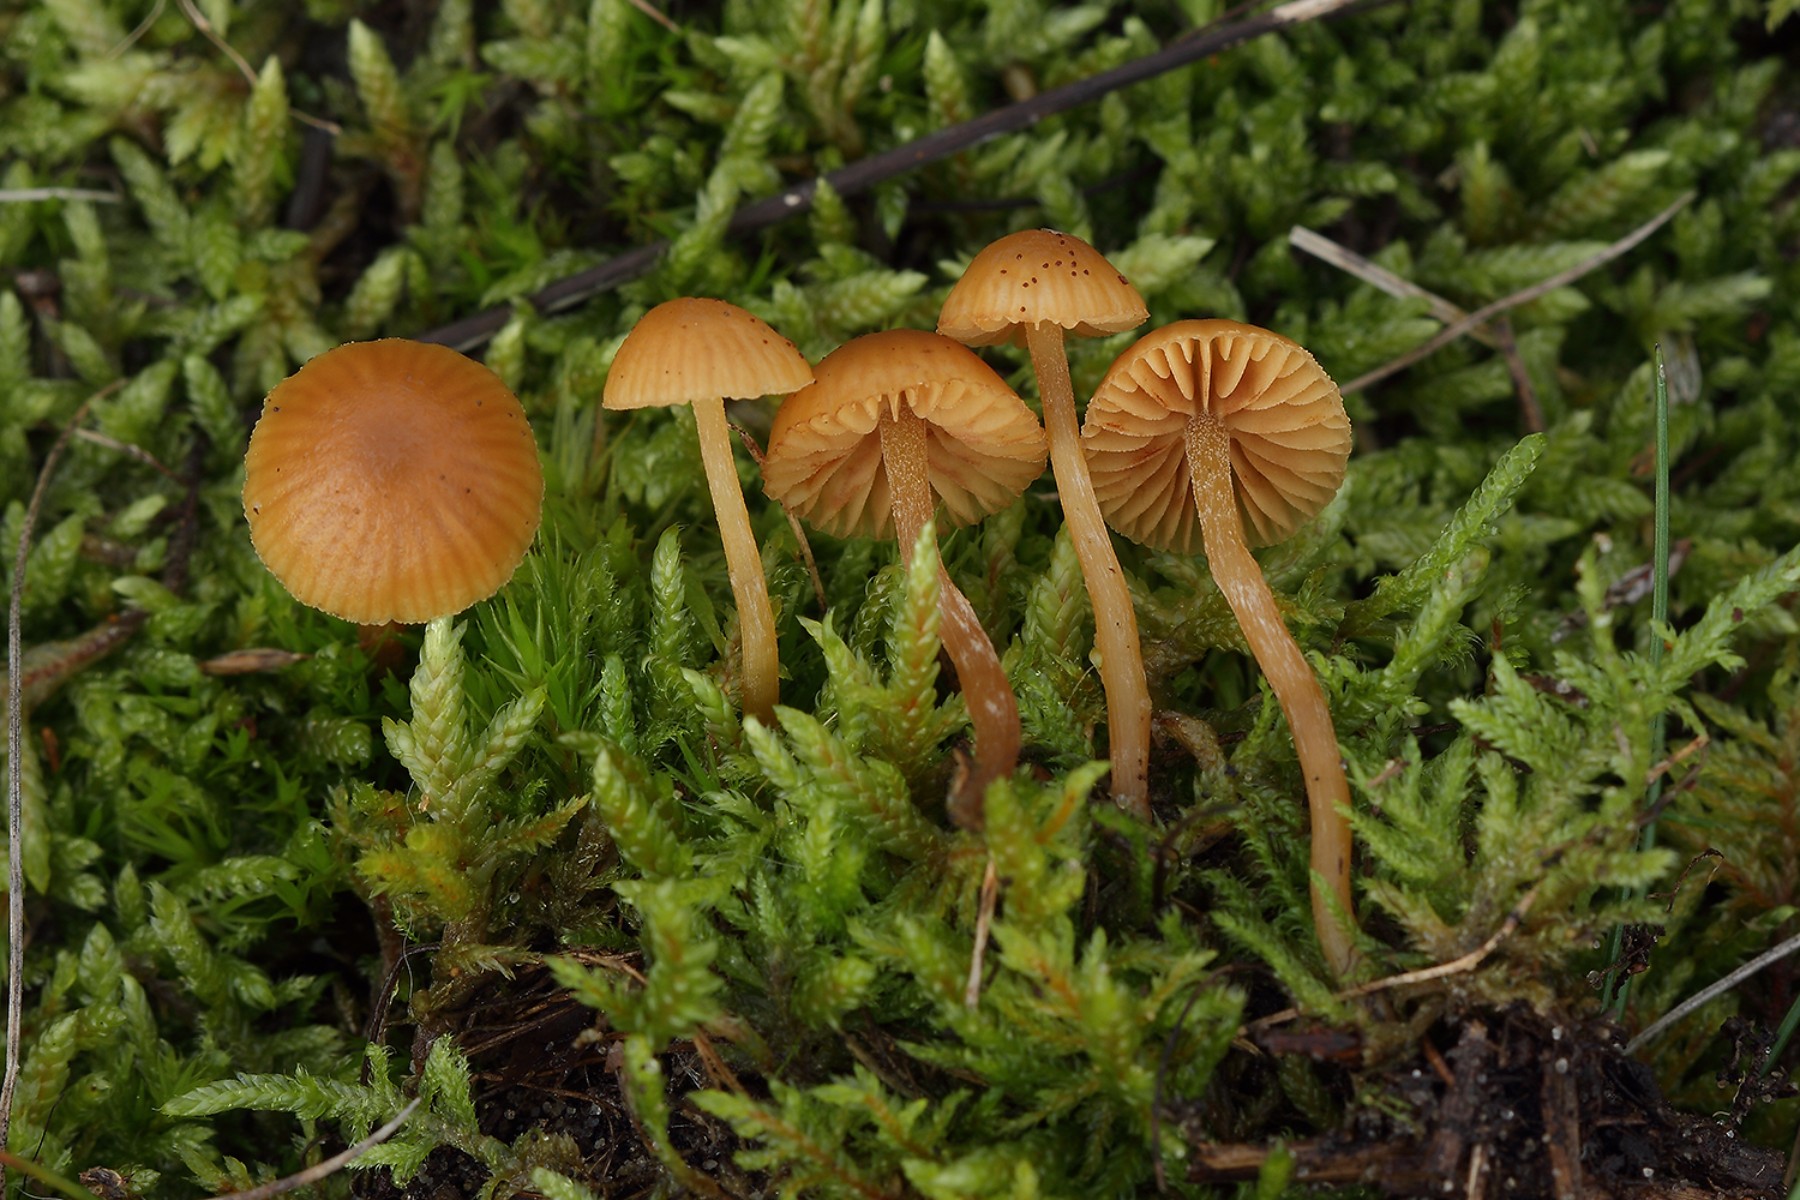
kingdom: Fungi
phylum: Basidiomycota
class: Agaricomycetes
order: Agaricales
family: Hymenogastraceae
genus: Galerina
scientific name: Galerina pumila
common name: honninggul hjelmhat
